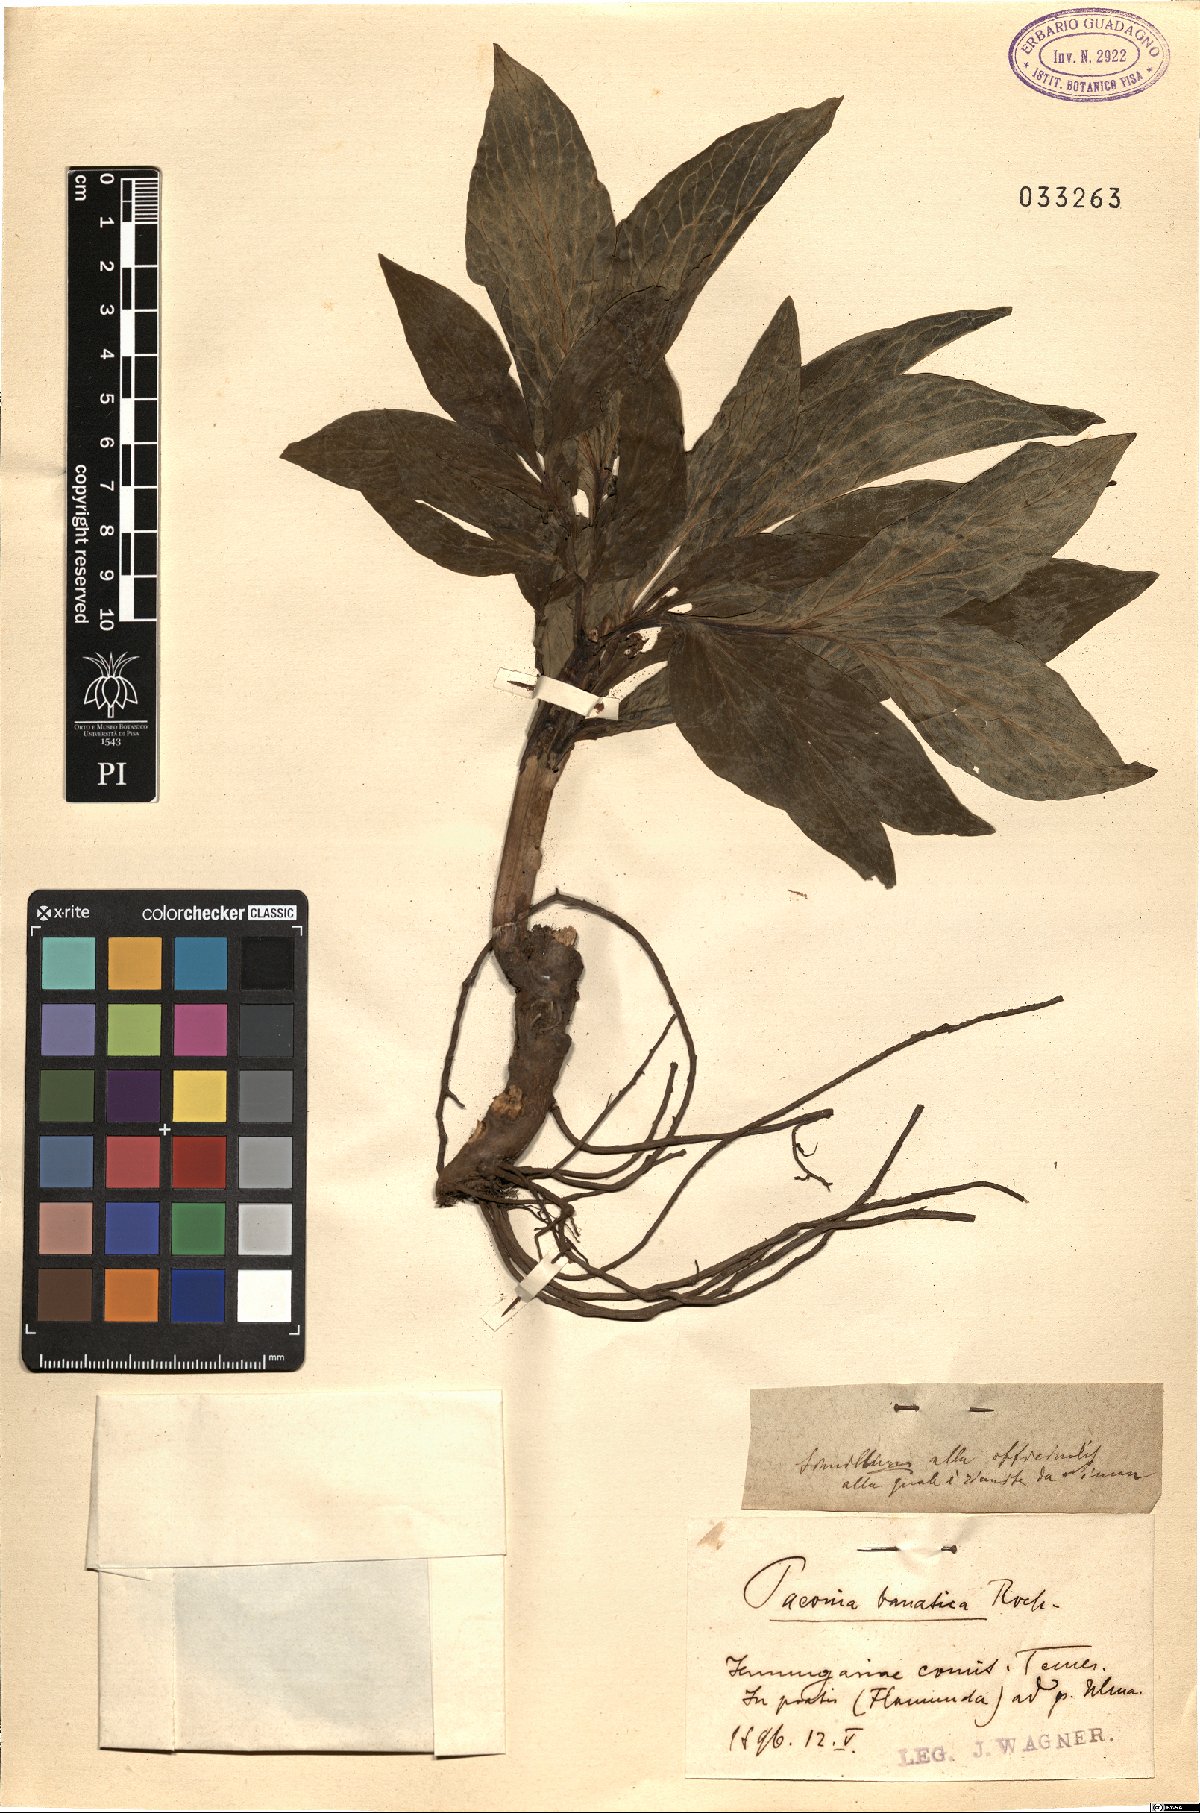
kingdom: Plantae
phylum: Tracheophyta
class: Magnoliopsida
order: Saxifragales
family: Paeoniaceae
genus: Paeonia
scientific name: Paeonia officinalis
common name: Common peony
